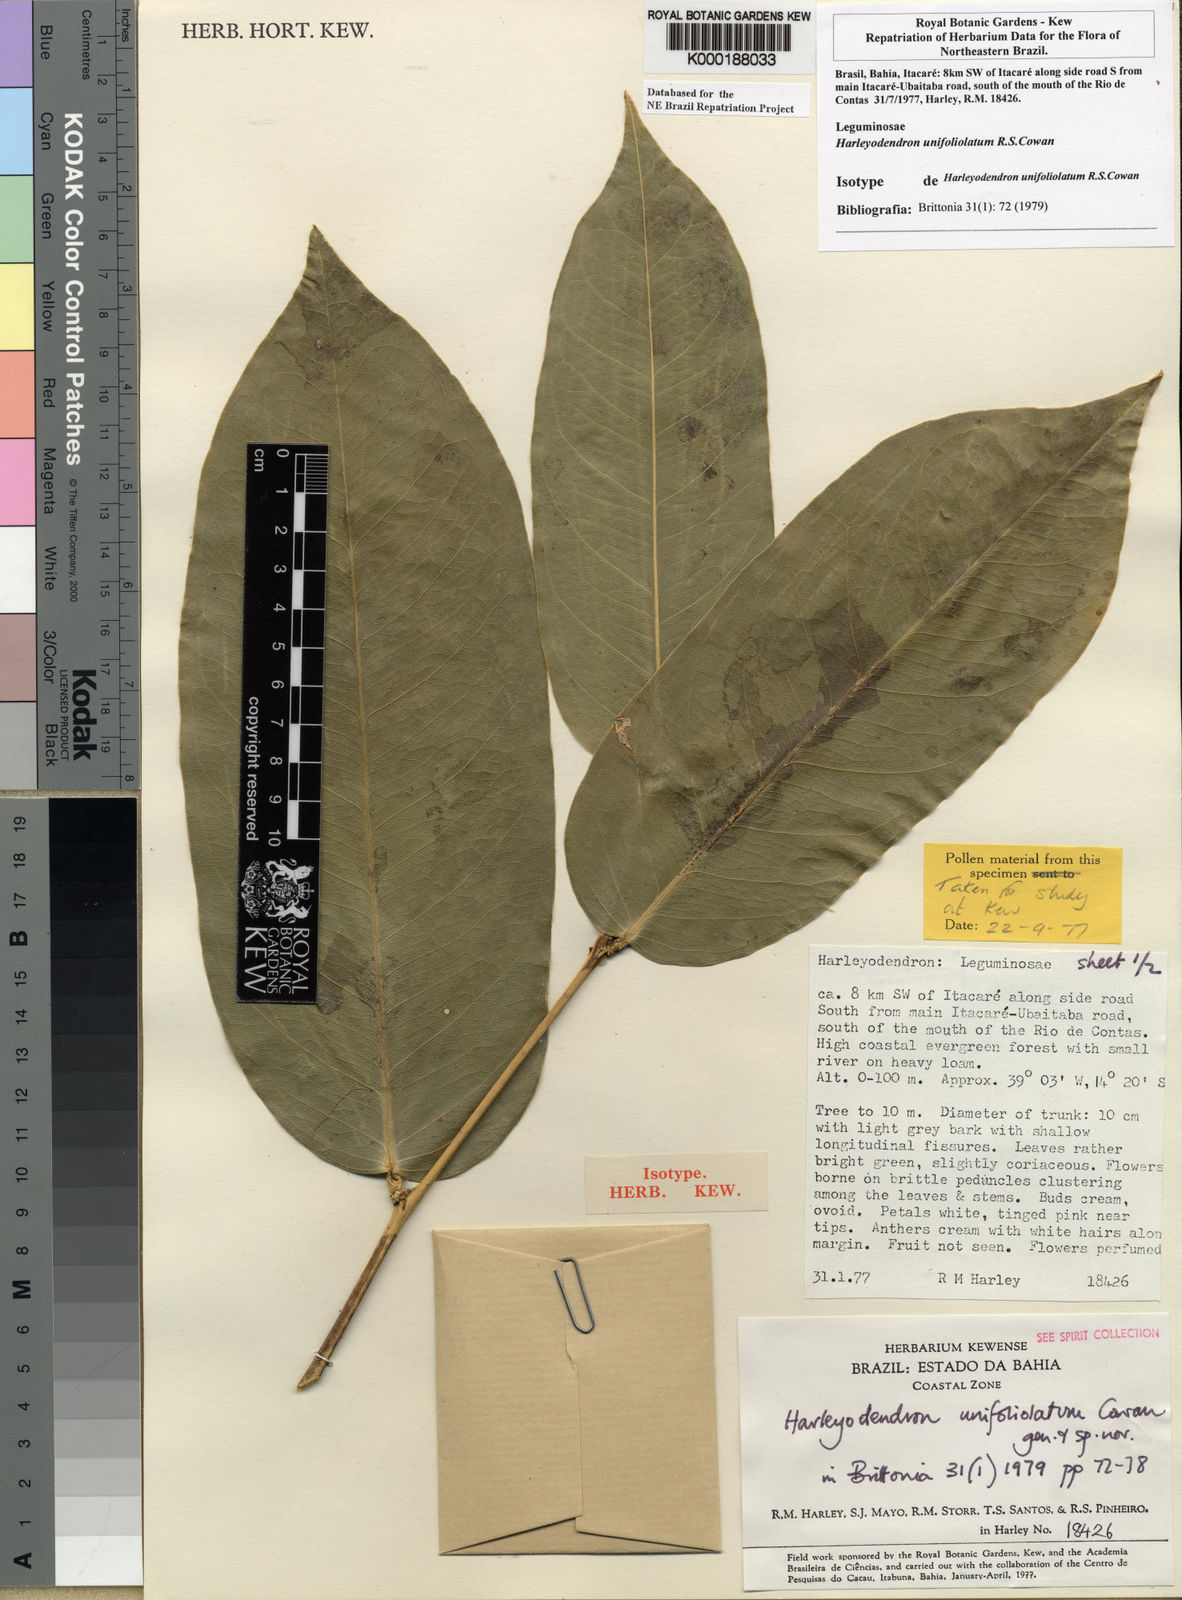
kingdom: Plantae
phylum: Tracheophyta
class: Magnoliopsida
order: Fabales
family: Fabaceae
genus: Harleyodendron
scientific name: Harleyodendron unifoliolatum
